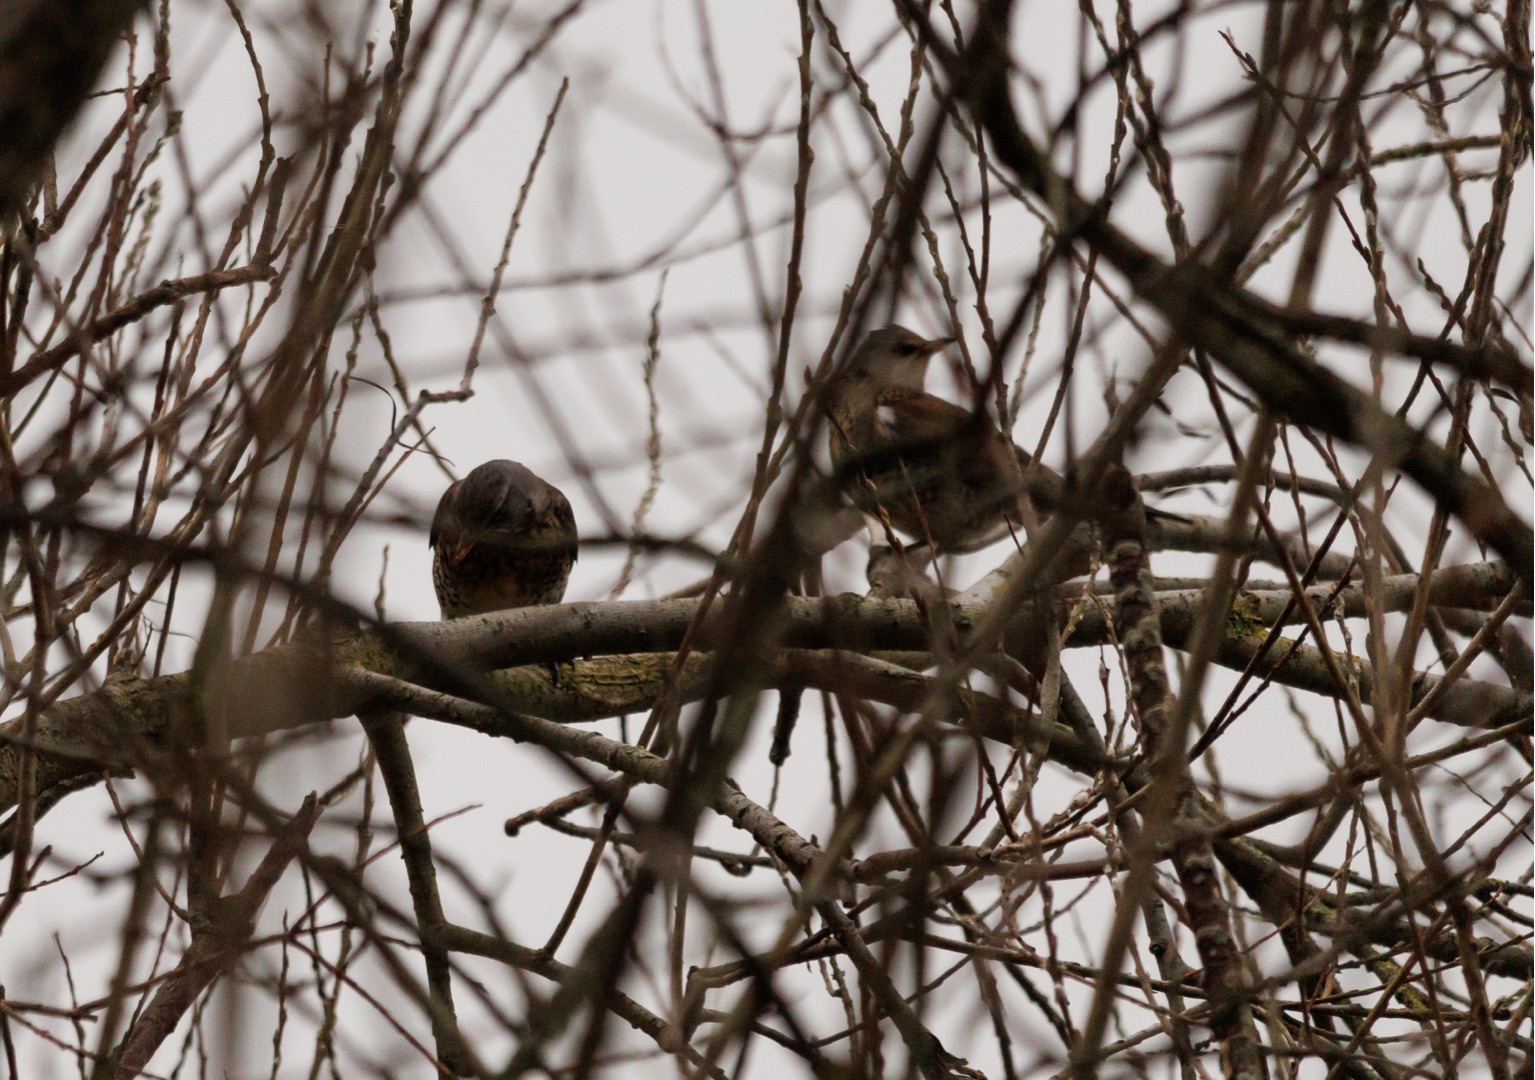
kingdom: Animalia
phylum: Chordata
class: Aves
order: Passeriformes
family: Turdidae
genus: Turdus
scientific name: Turdus pilaris
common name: Sjagger
